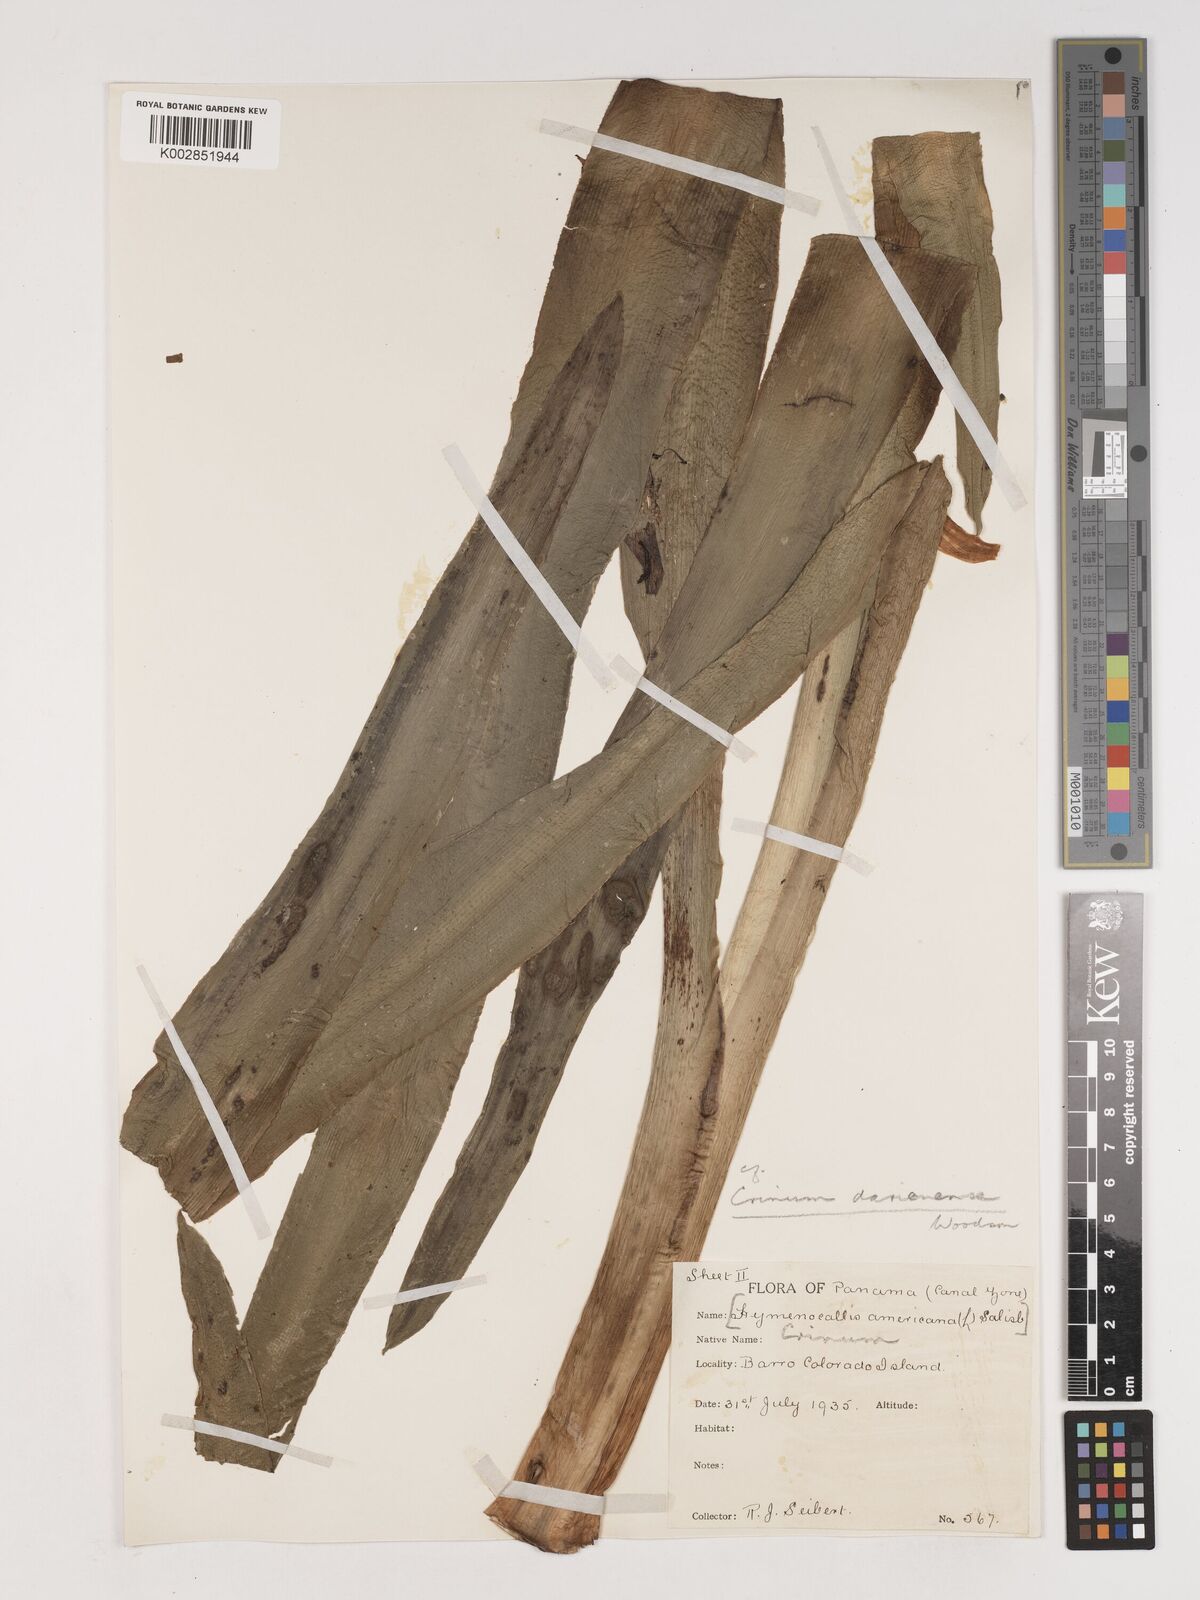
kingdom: Plantae
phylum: Tracheophyta
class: Liliopsida
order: Asparagales
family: Amaryllidaceae
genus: Crinum
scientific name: Crinum kunthianum
